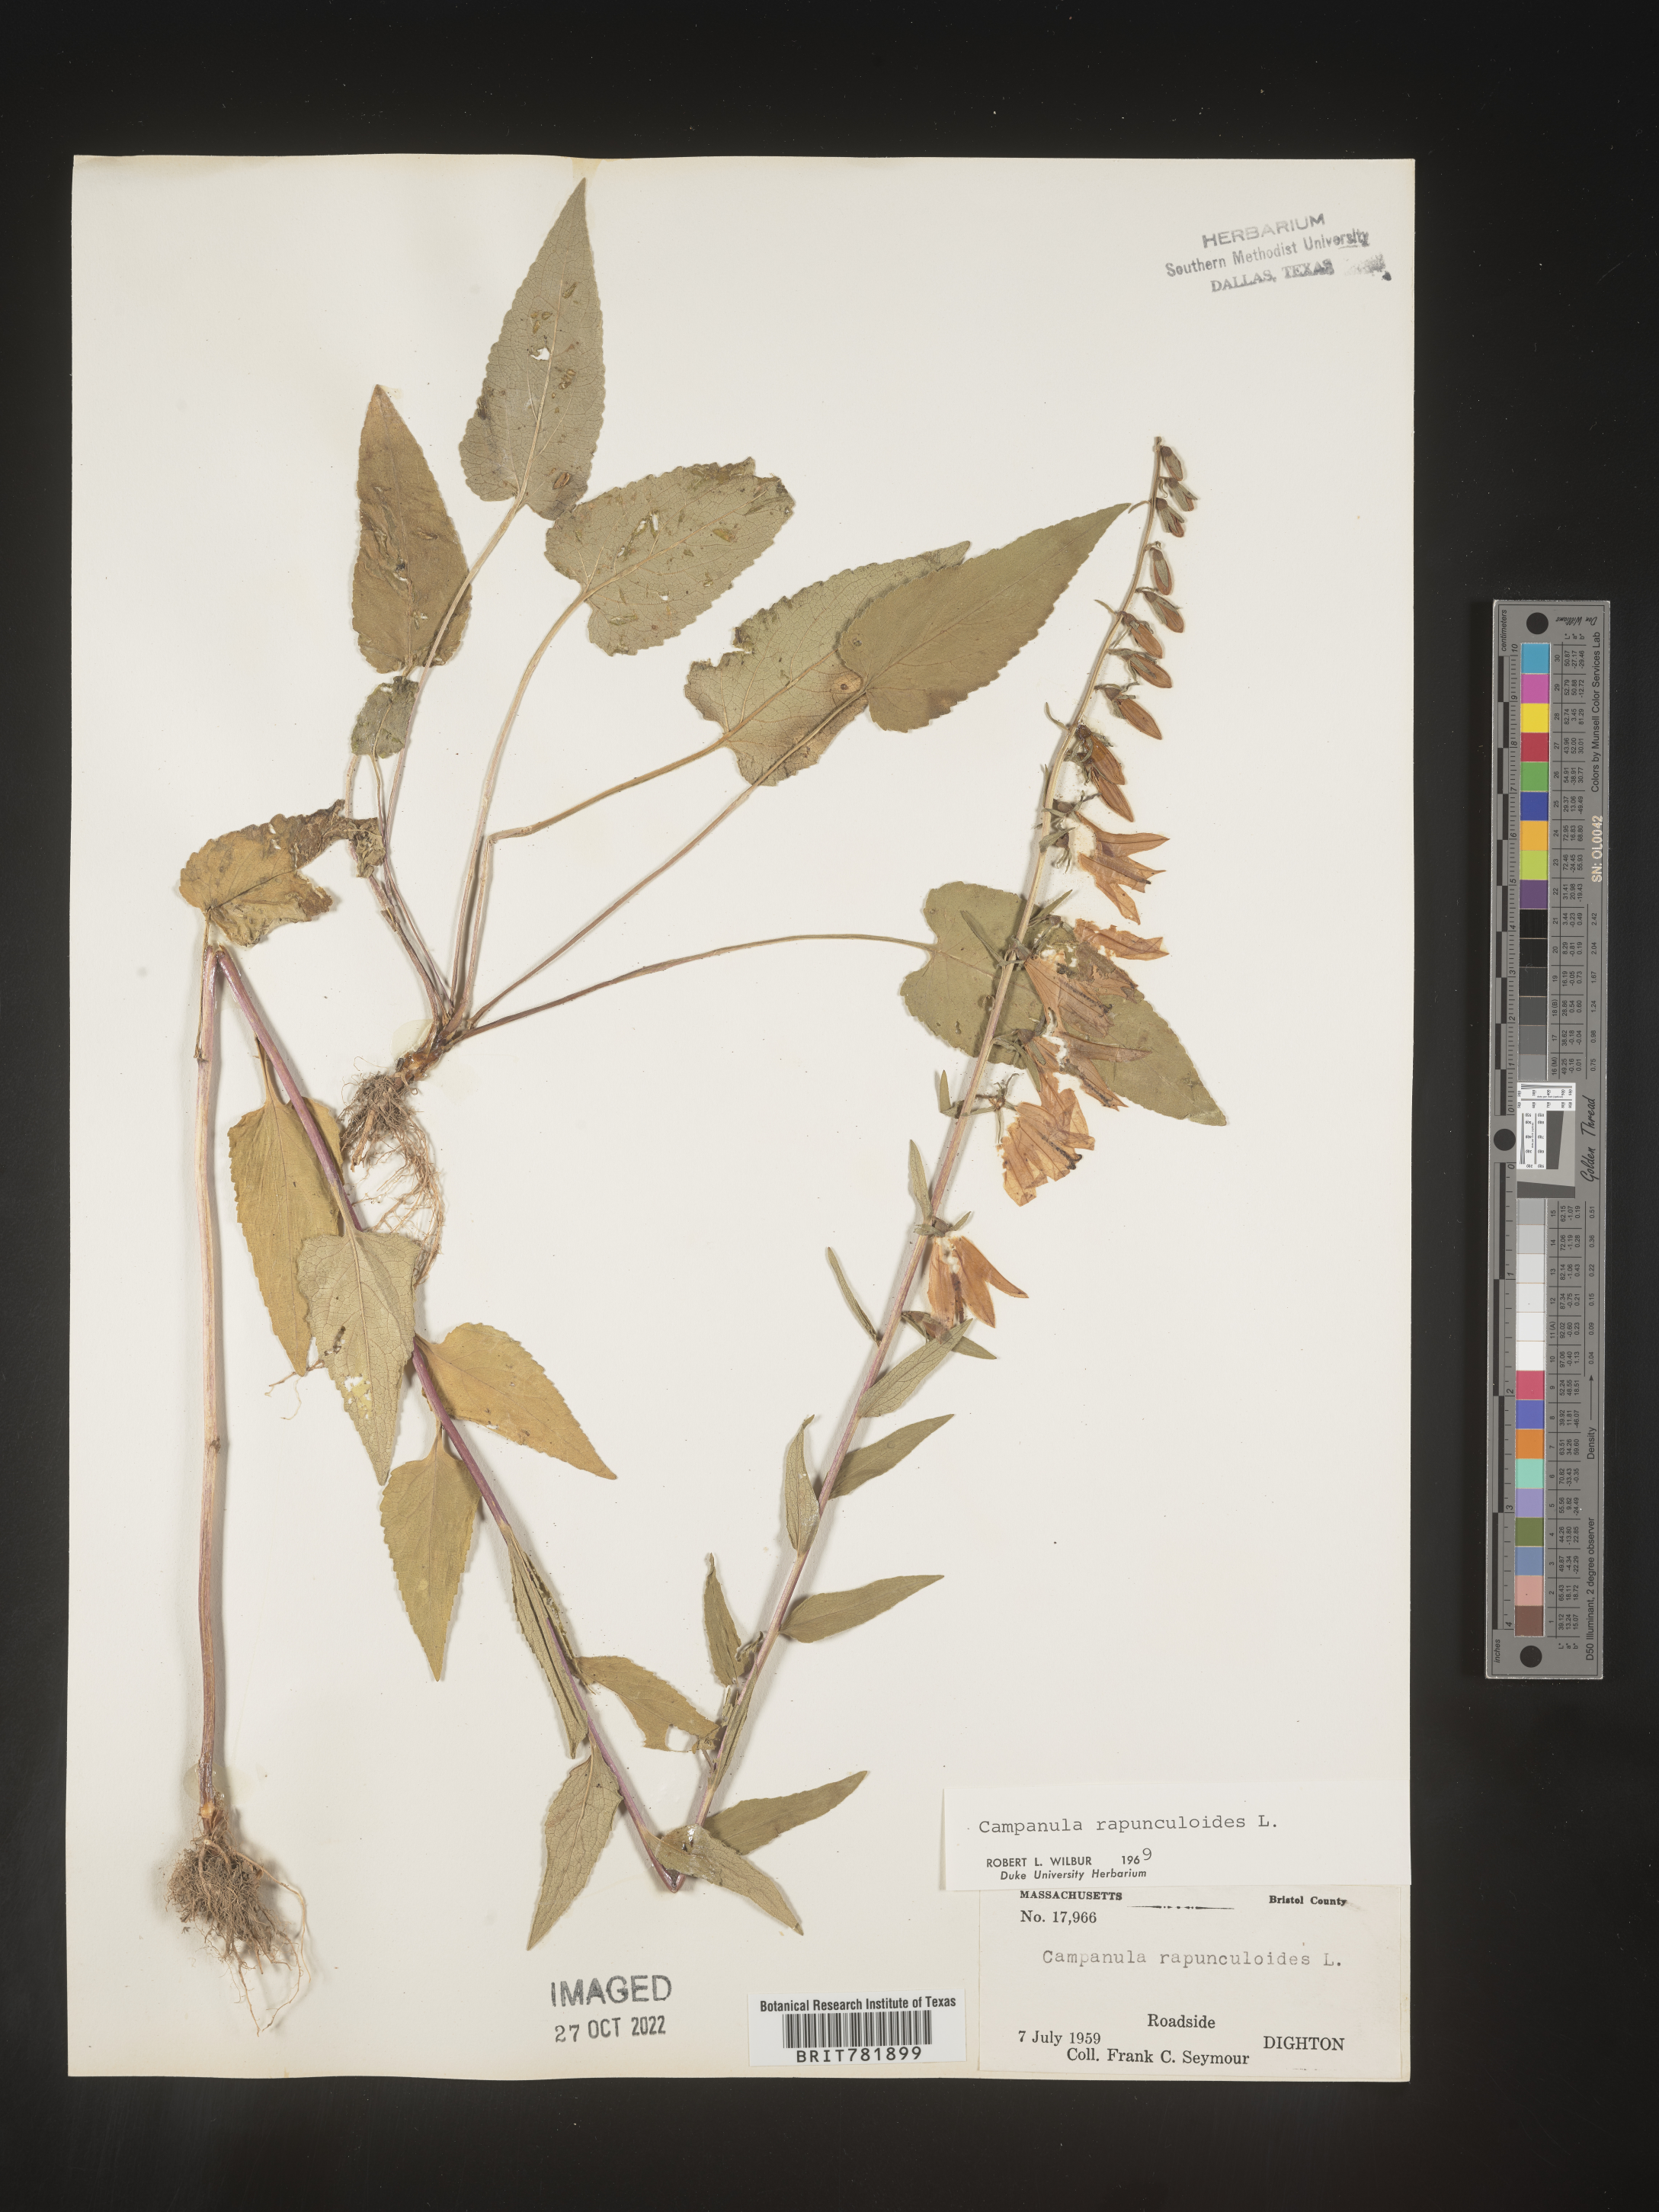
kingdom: Plantae
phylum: Tracheophyta
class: Magnoliopsida
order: Asterales
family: Campanulaceae
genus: Campanula
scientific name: Campanula
